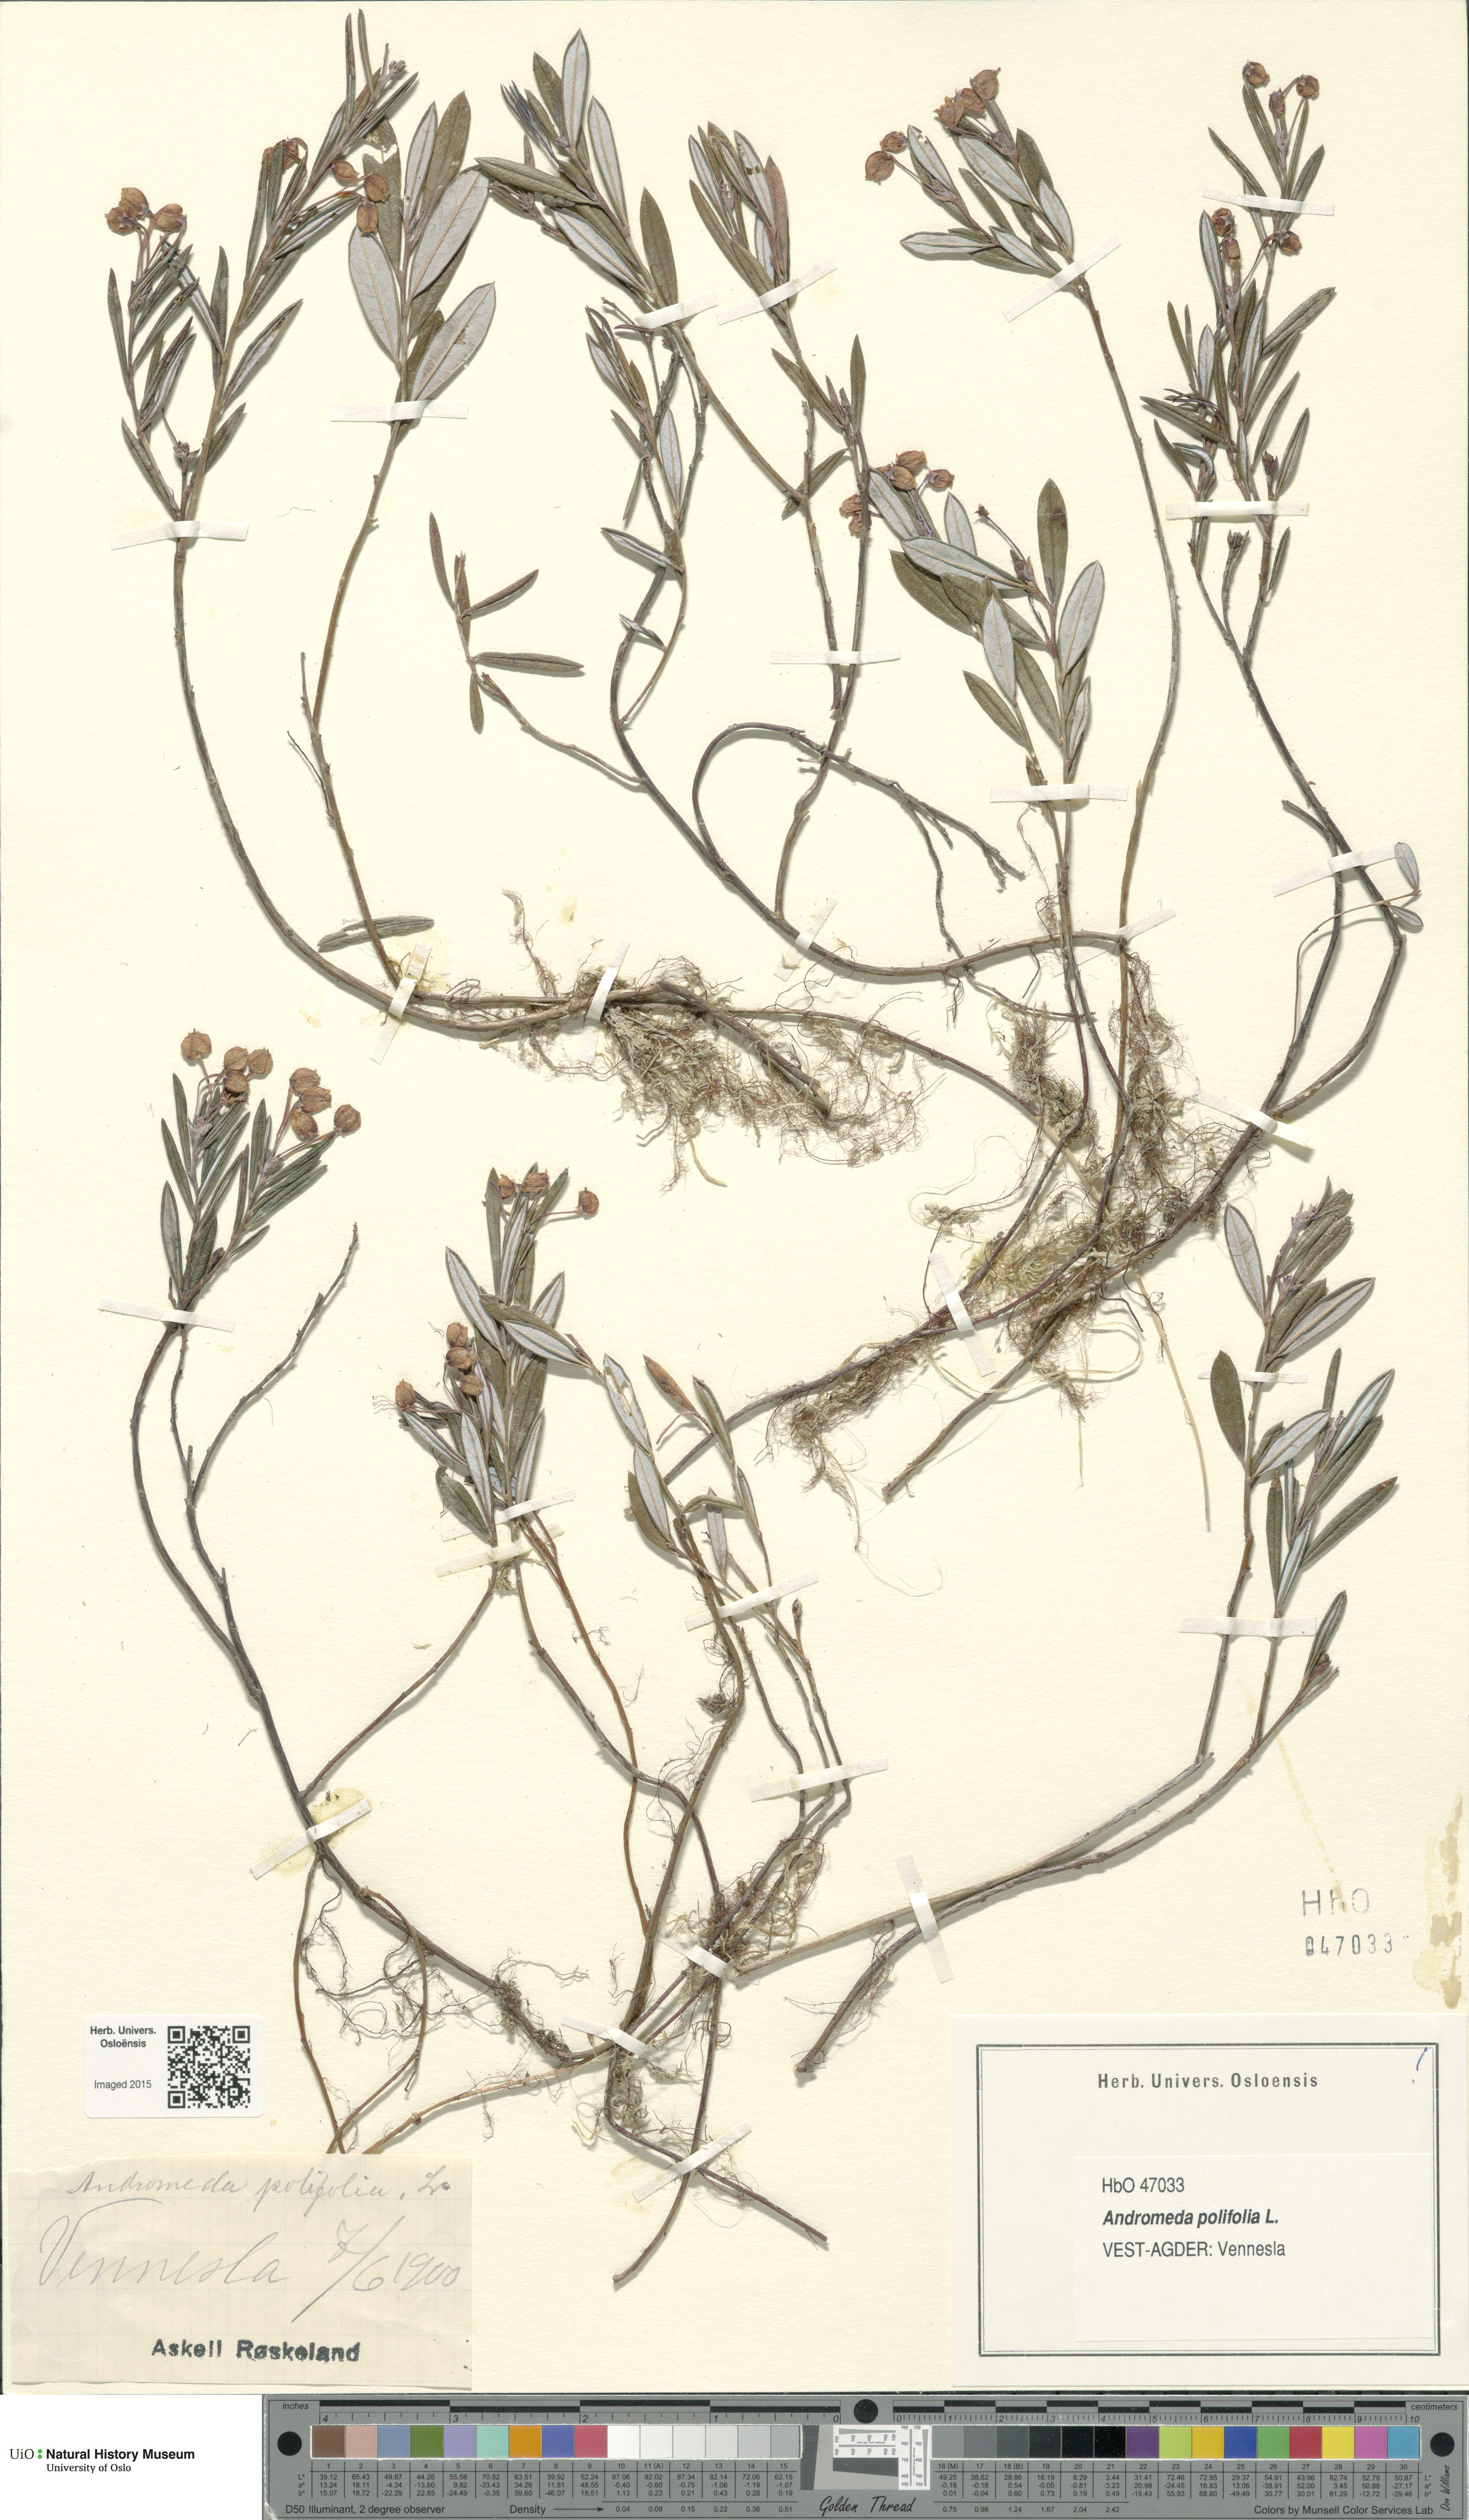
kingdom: Plantae
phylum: Tracheophyta
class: Magnoliopsida
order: Ericales
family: Ericaceae
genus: Andromeda
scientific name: Andromeda polifolia
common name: Bog-rosemary
